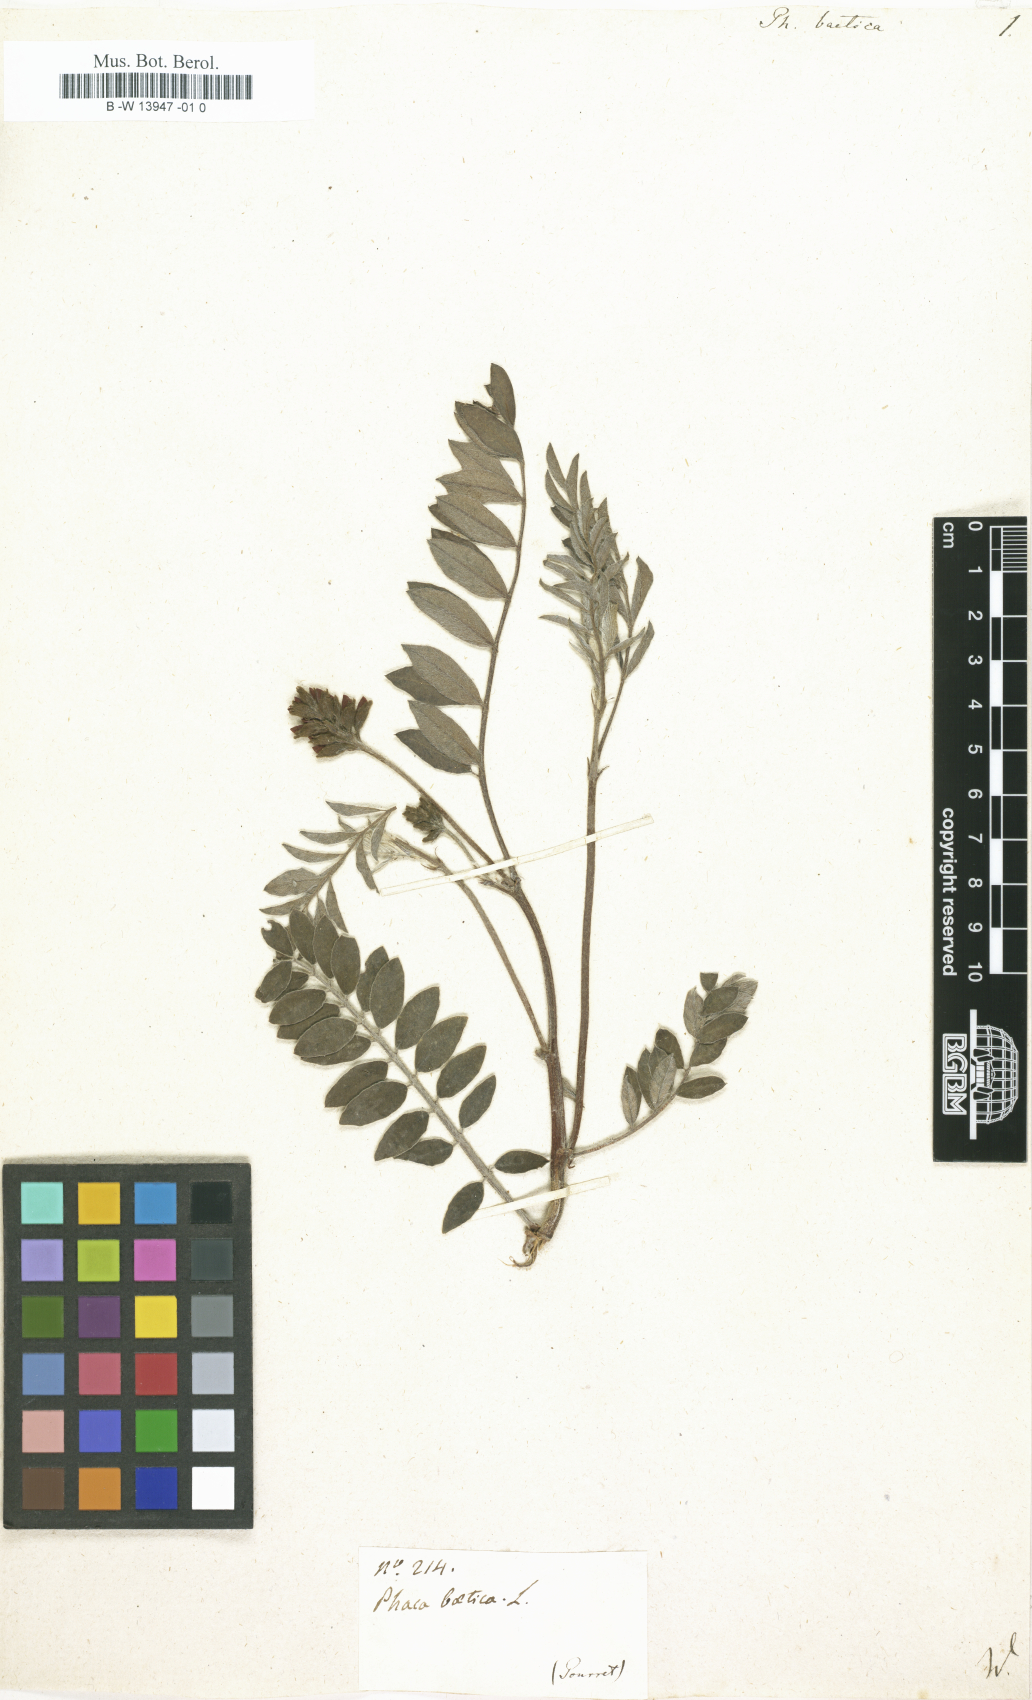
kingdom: Plantae
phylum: Tracheophyta
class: Magnoliopsida
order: Fabales
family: Fabaceae
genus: Erophaca
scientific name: Erophaca baetica
